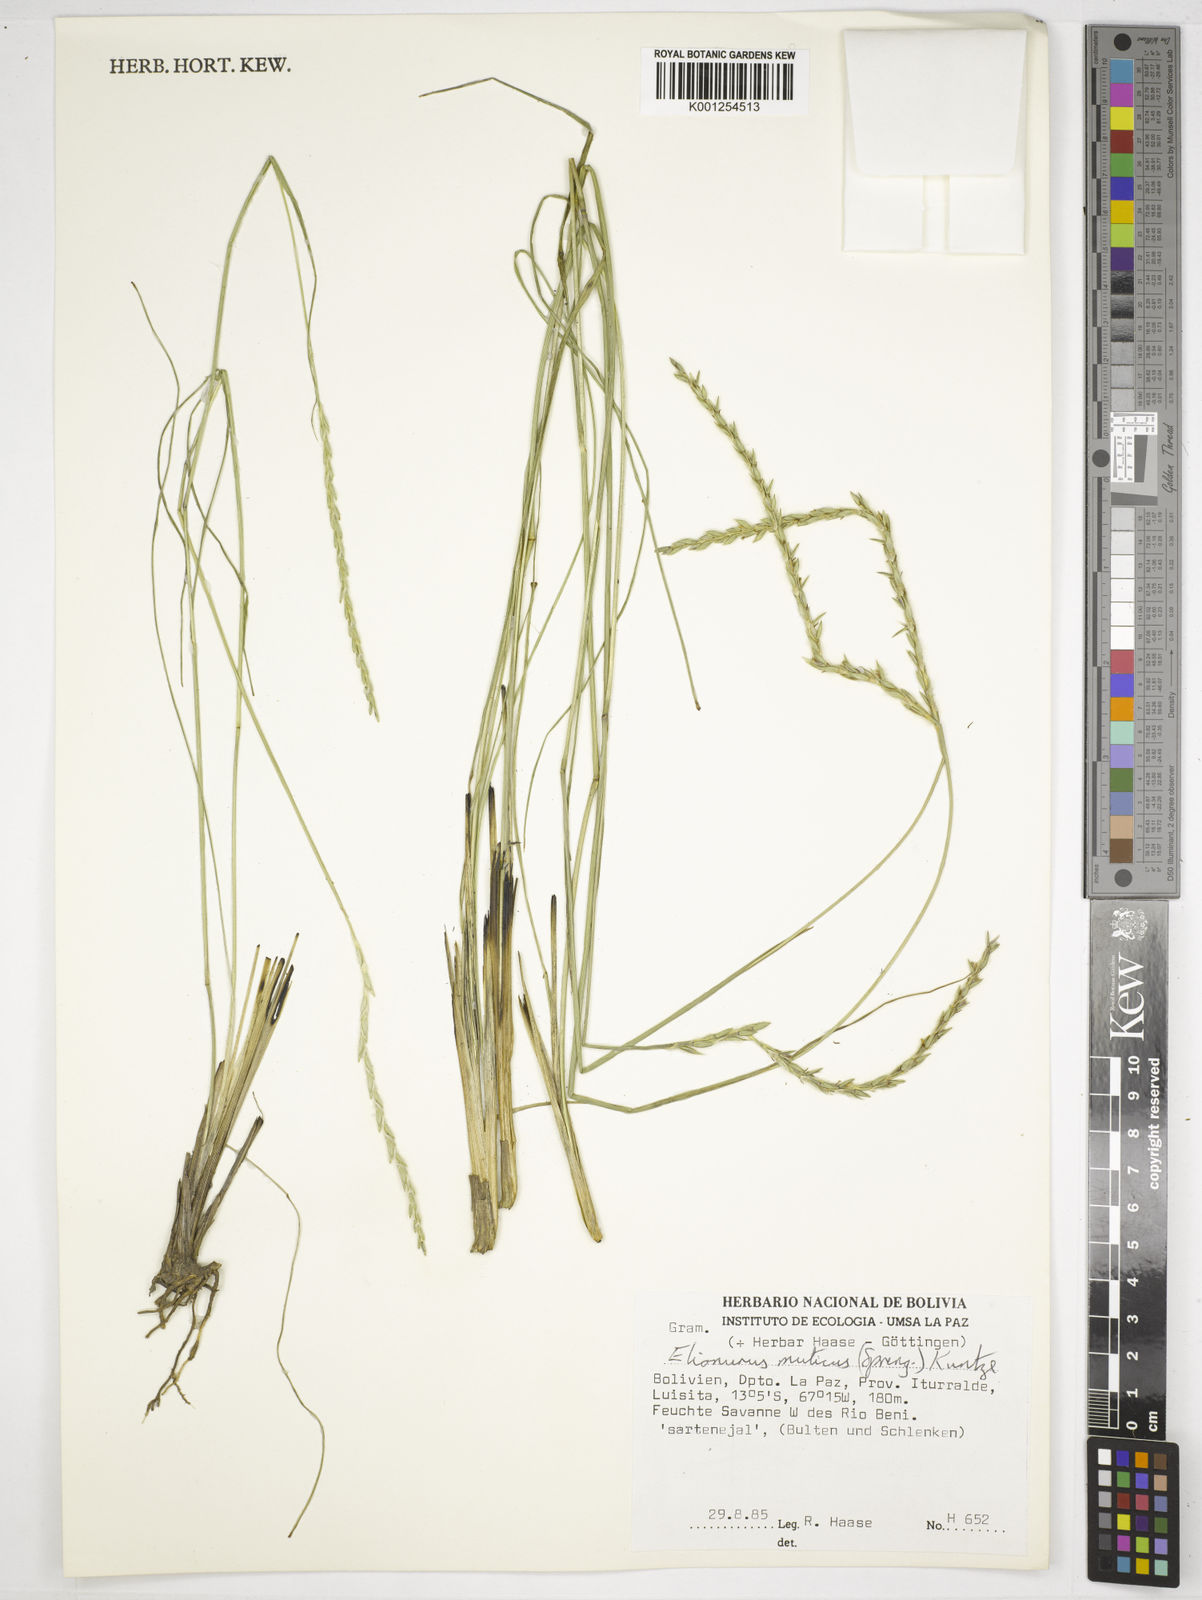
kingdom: Plantae
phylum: Tracheophyta
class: Liliopsida
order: Poales
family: Poaceae
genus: Elionurus
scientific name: Elionurus muticus
